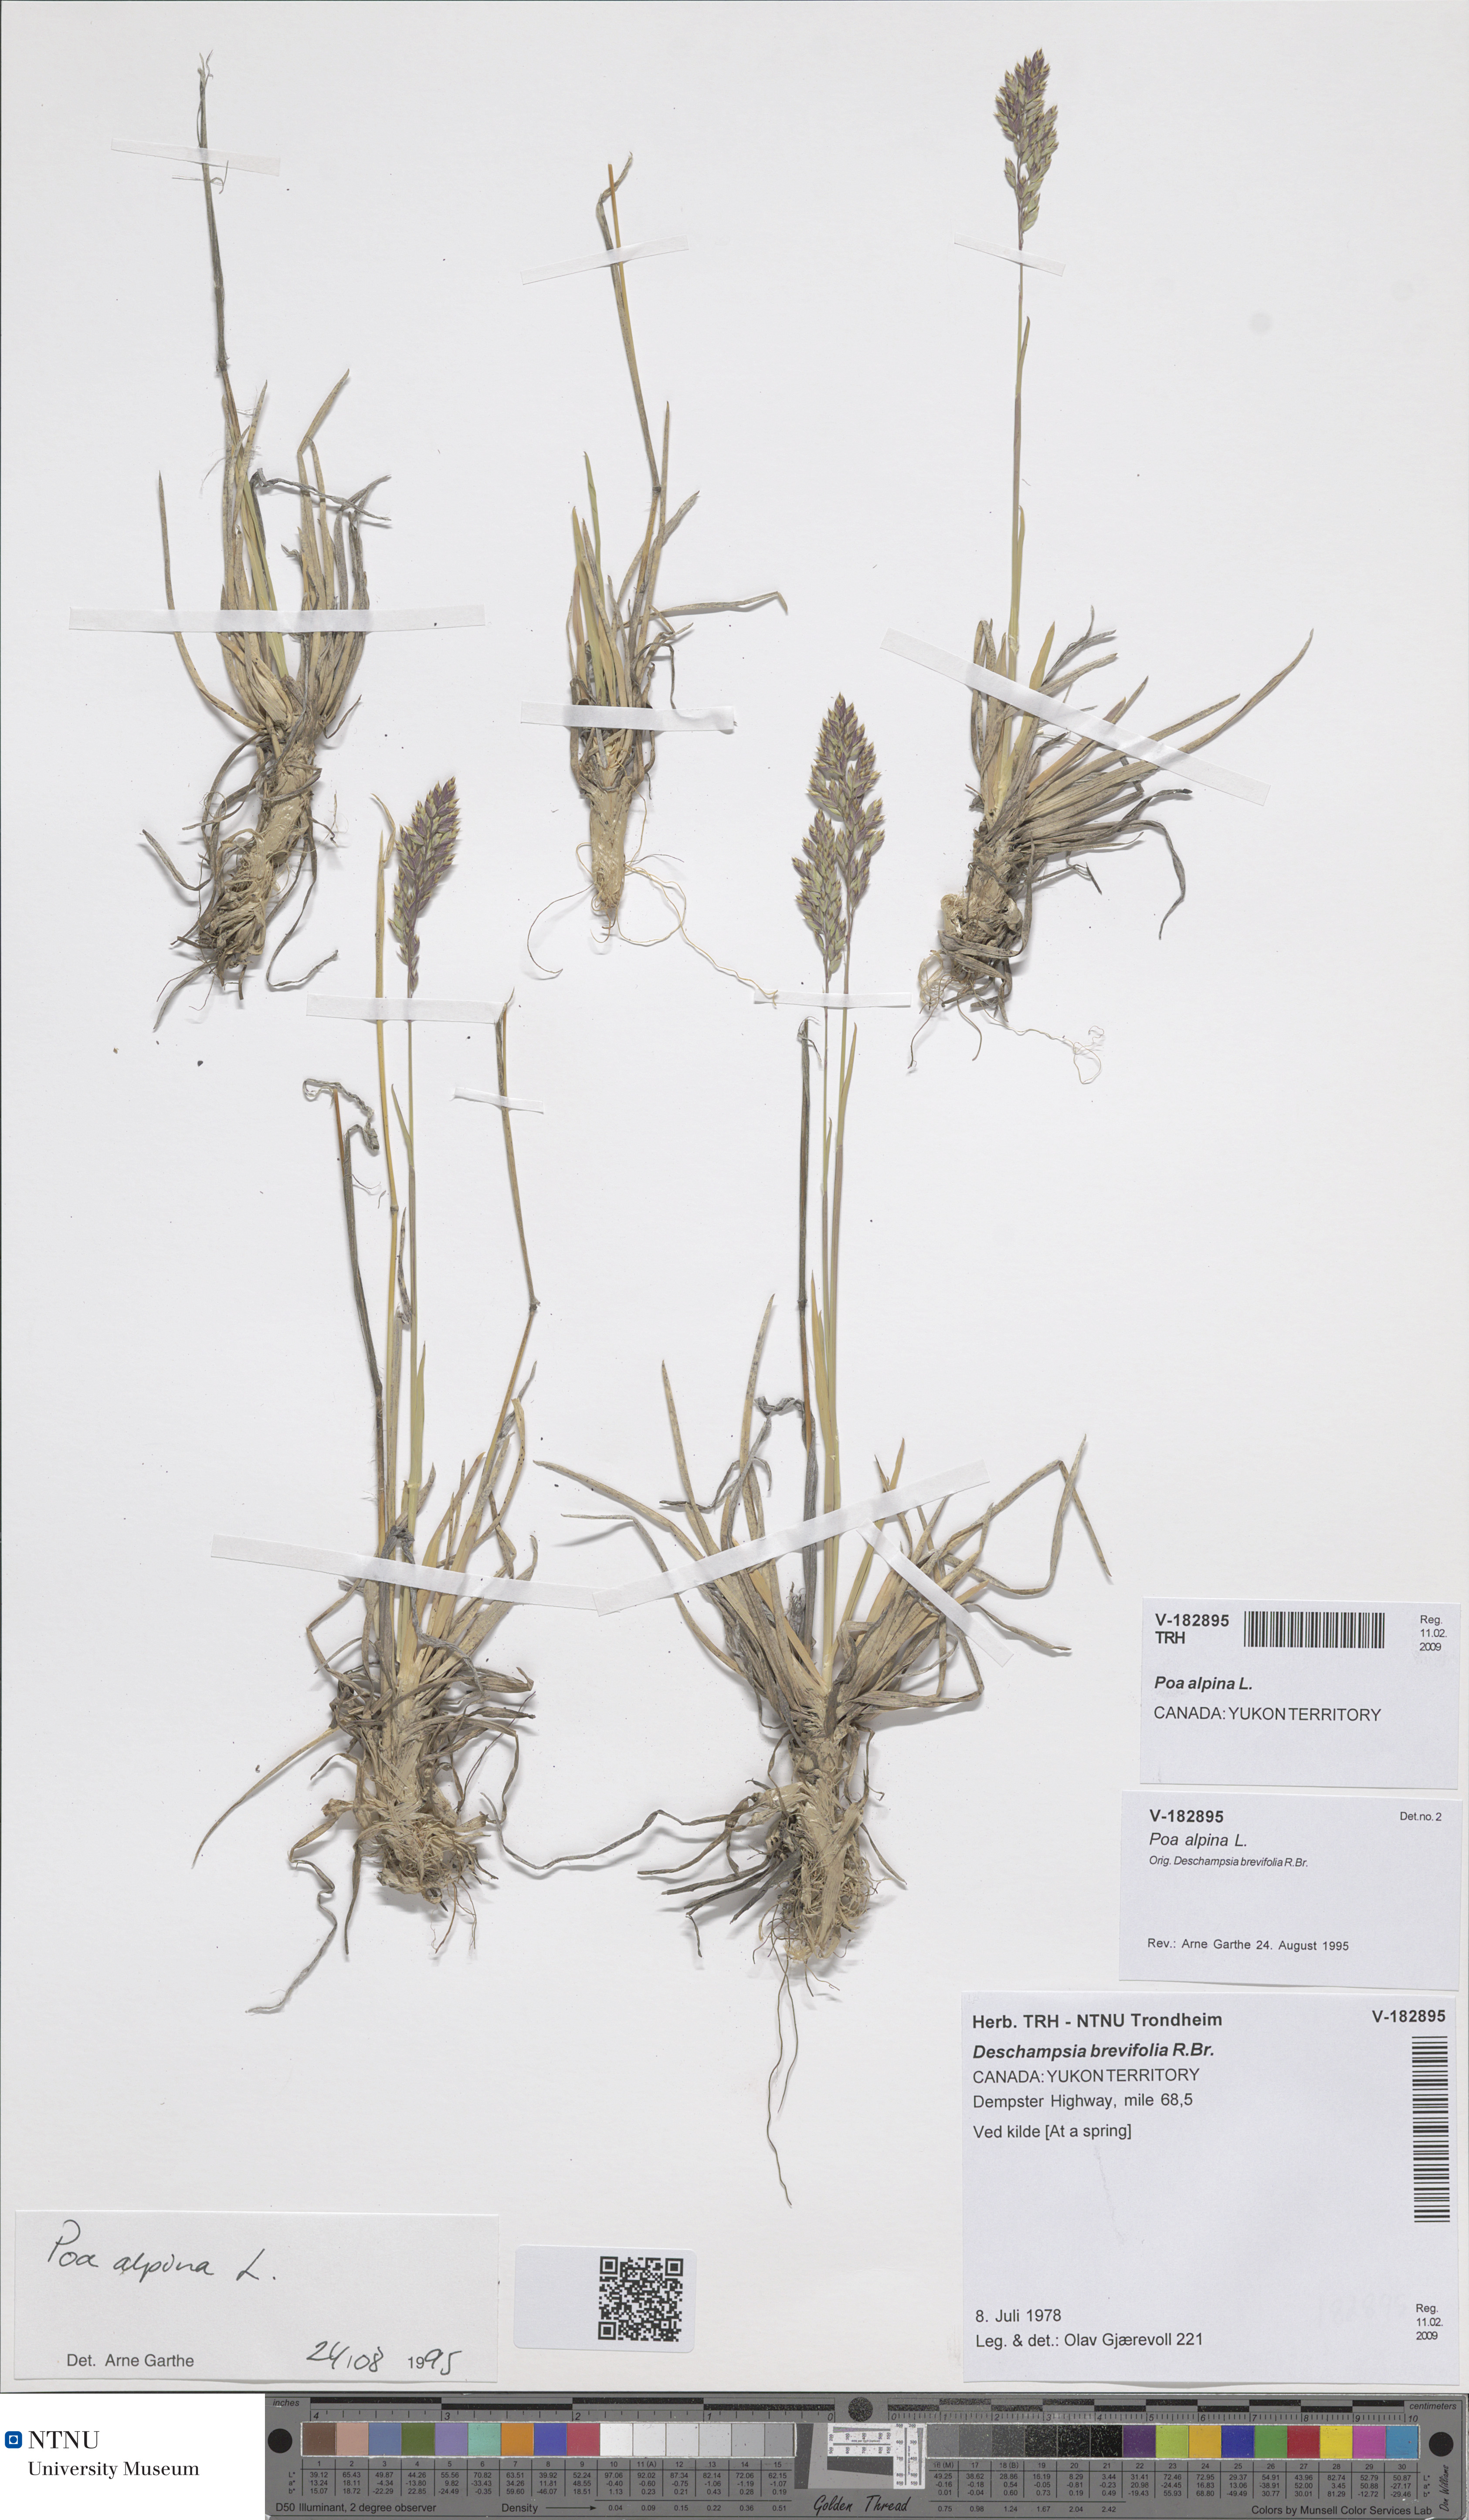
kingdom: Plantae
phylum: Tracheophyta
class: Liliopsida
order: Poales
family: Poaceae
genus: Poa
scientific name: Poa alpina
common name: Alpine bluegrass
